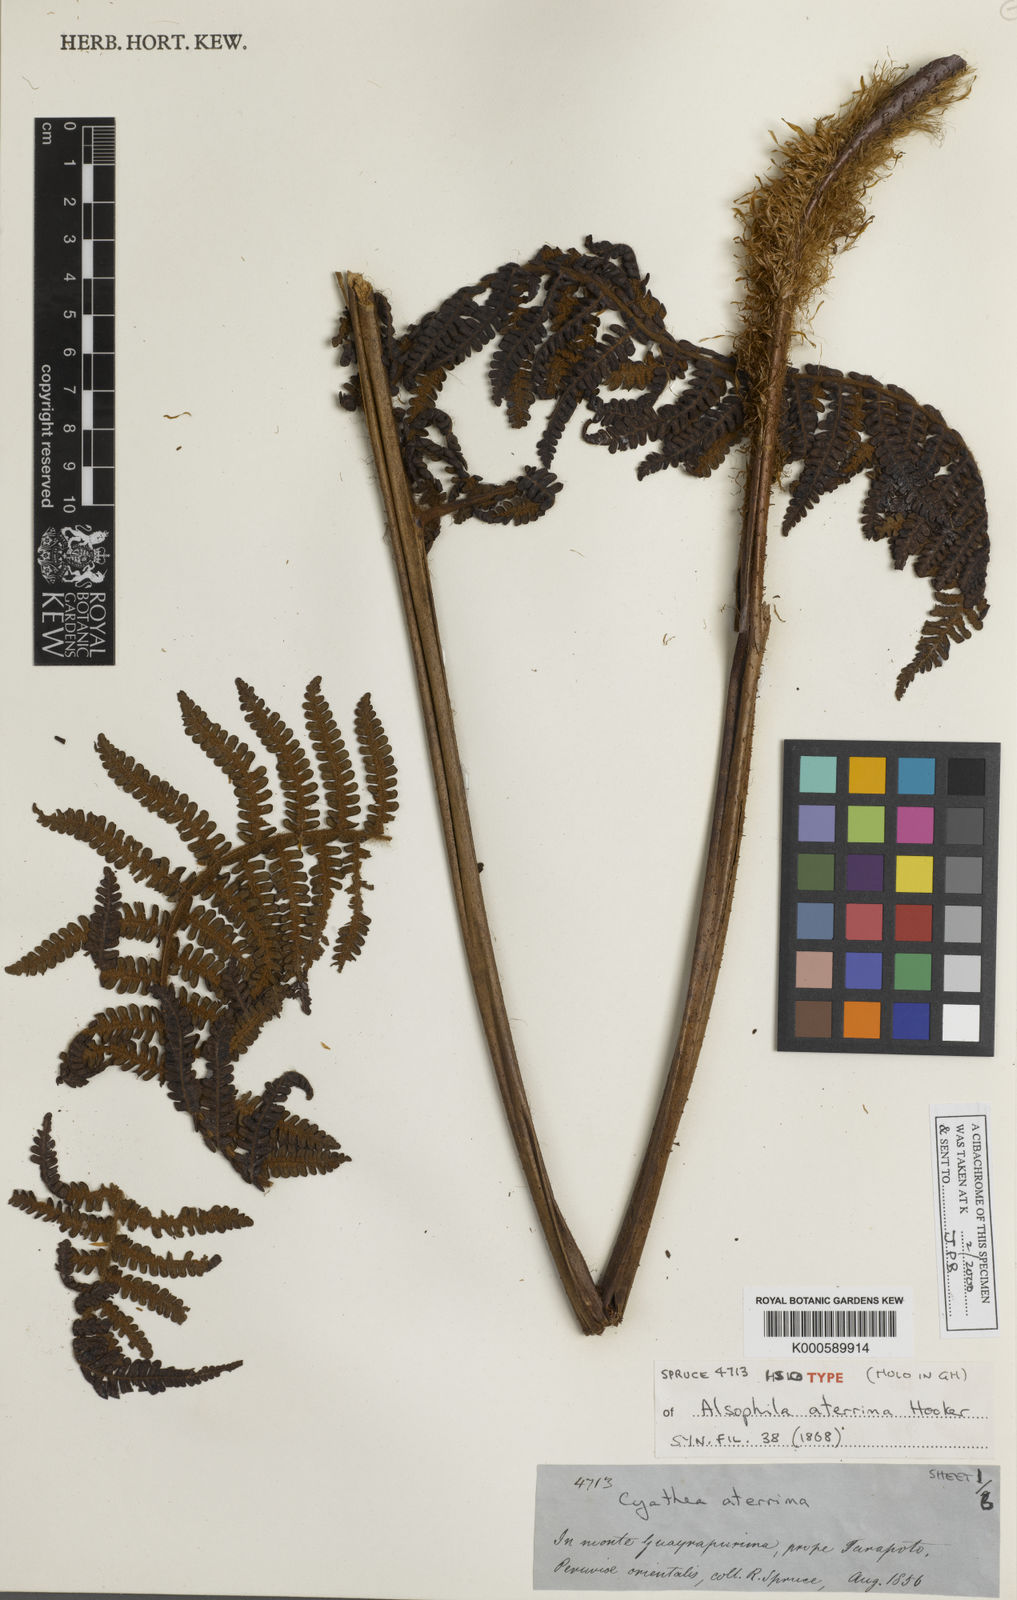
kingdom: Plantae
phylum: Tracheophyta
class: Polypodiopsida
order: Cyatheales
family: Cyatheaceae
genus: Cyathea
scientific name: Cyathea aterrima
